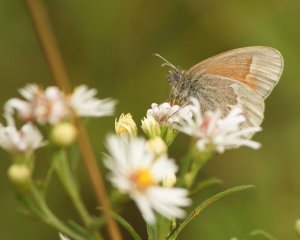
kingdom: Animalia
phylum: Arthropoda
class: Insecta
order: Lepidoptera
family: Nymphalidae
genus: Coenonympha
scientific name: Coenonympha tullia
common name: Large Heath
